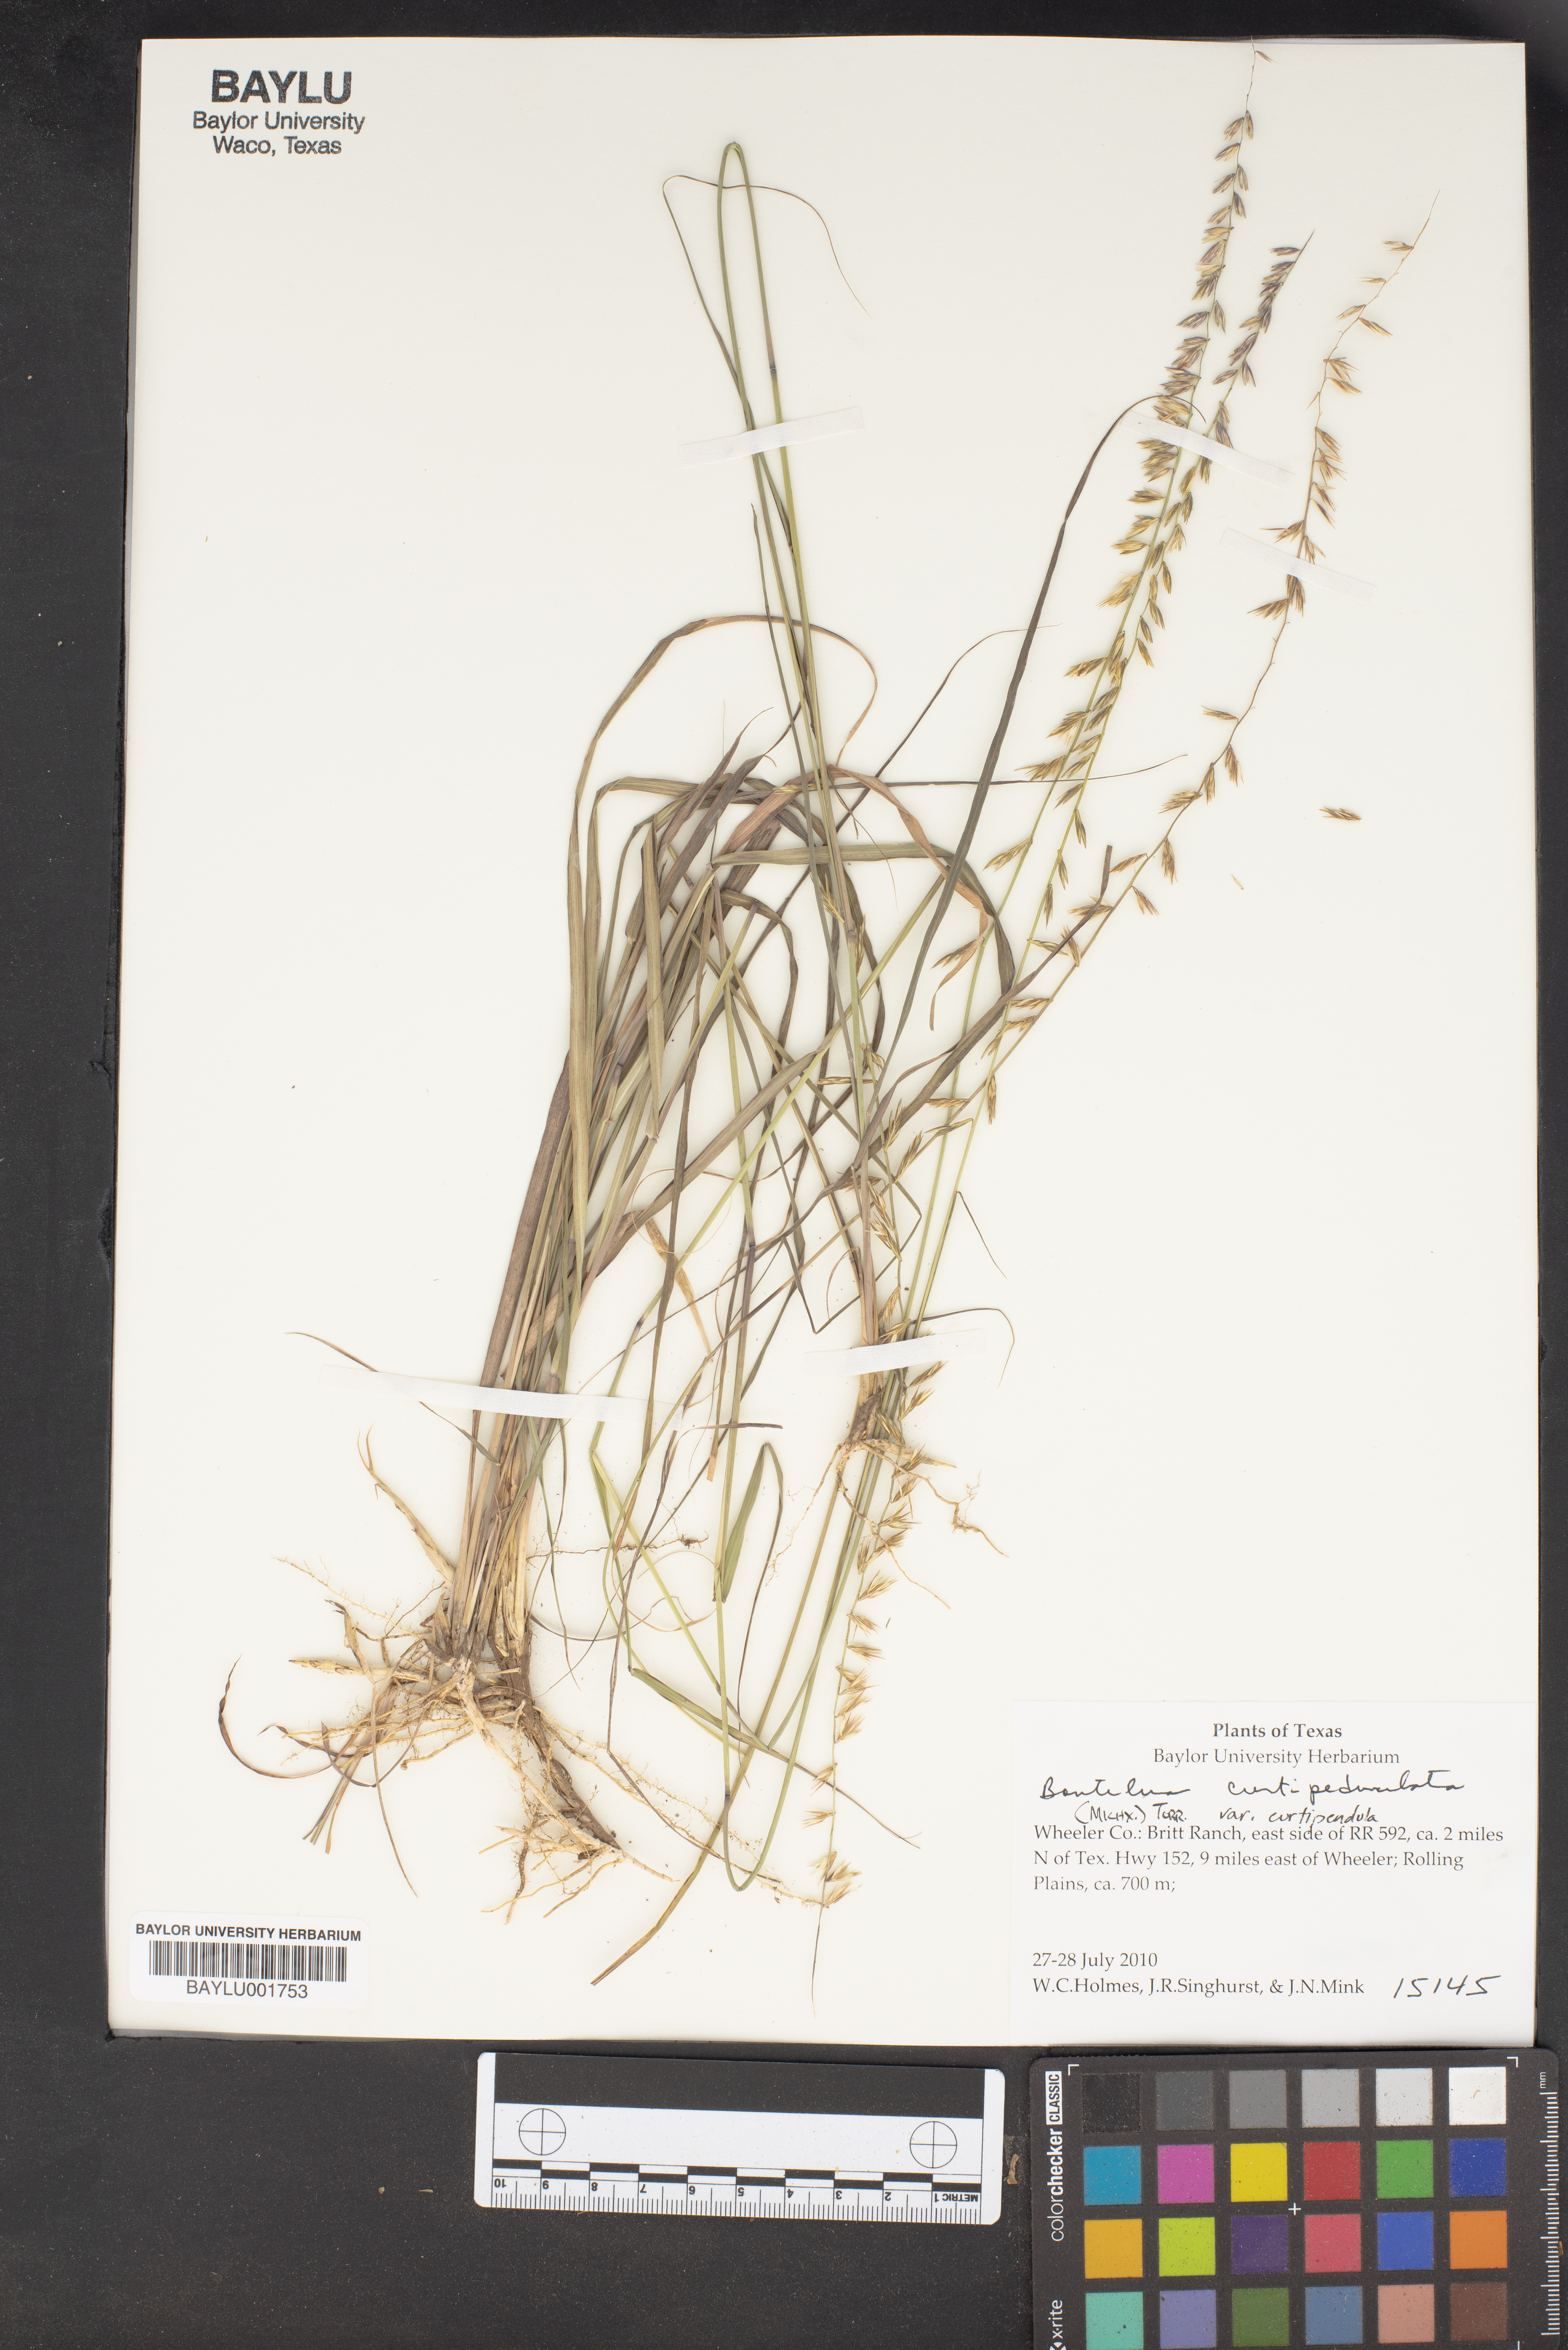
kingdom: Plantae
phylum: Tracheophyta
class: Liliopsida
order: Poales
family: Poaceae
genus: Bothriochloa
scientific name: Bothriochloa
